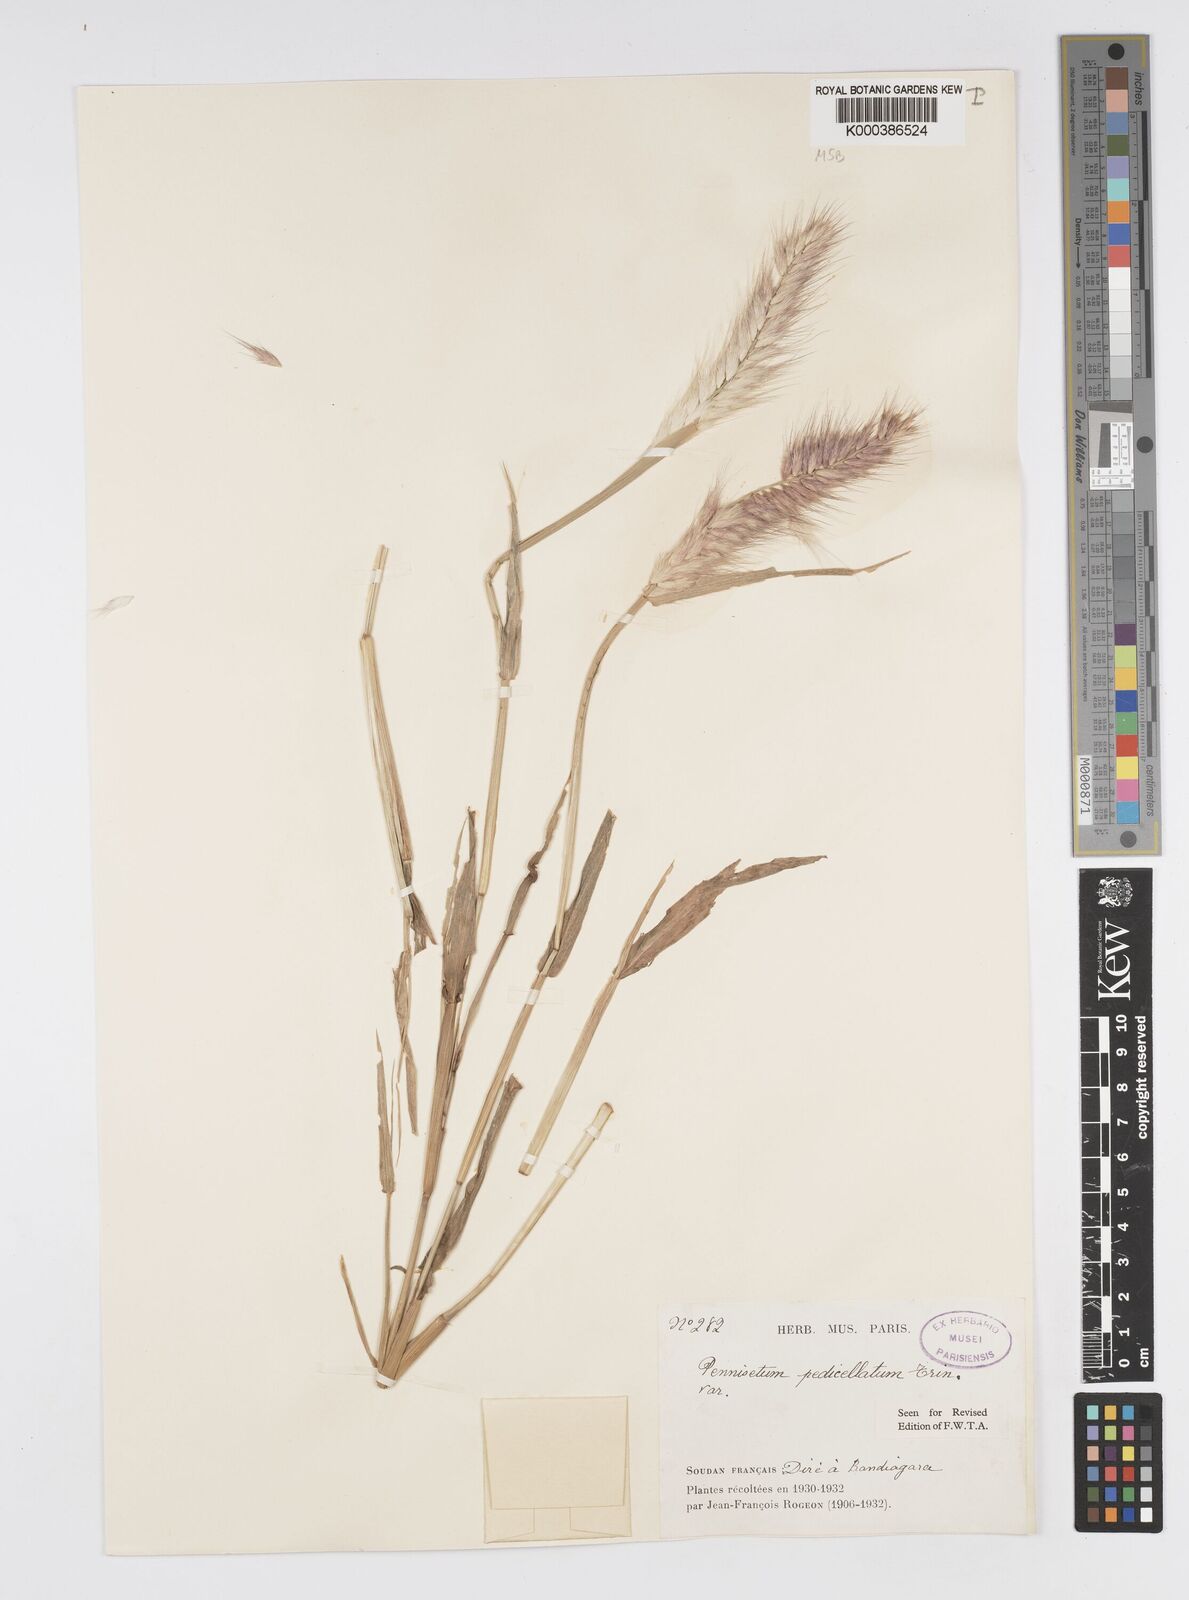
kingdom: Plantae
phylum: Tracheophyta
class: Liliopsida
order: Poales
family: Poaceae
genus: Cenchrus
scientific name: Cenchrus pedicellatus
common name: Hairy fountain grass
